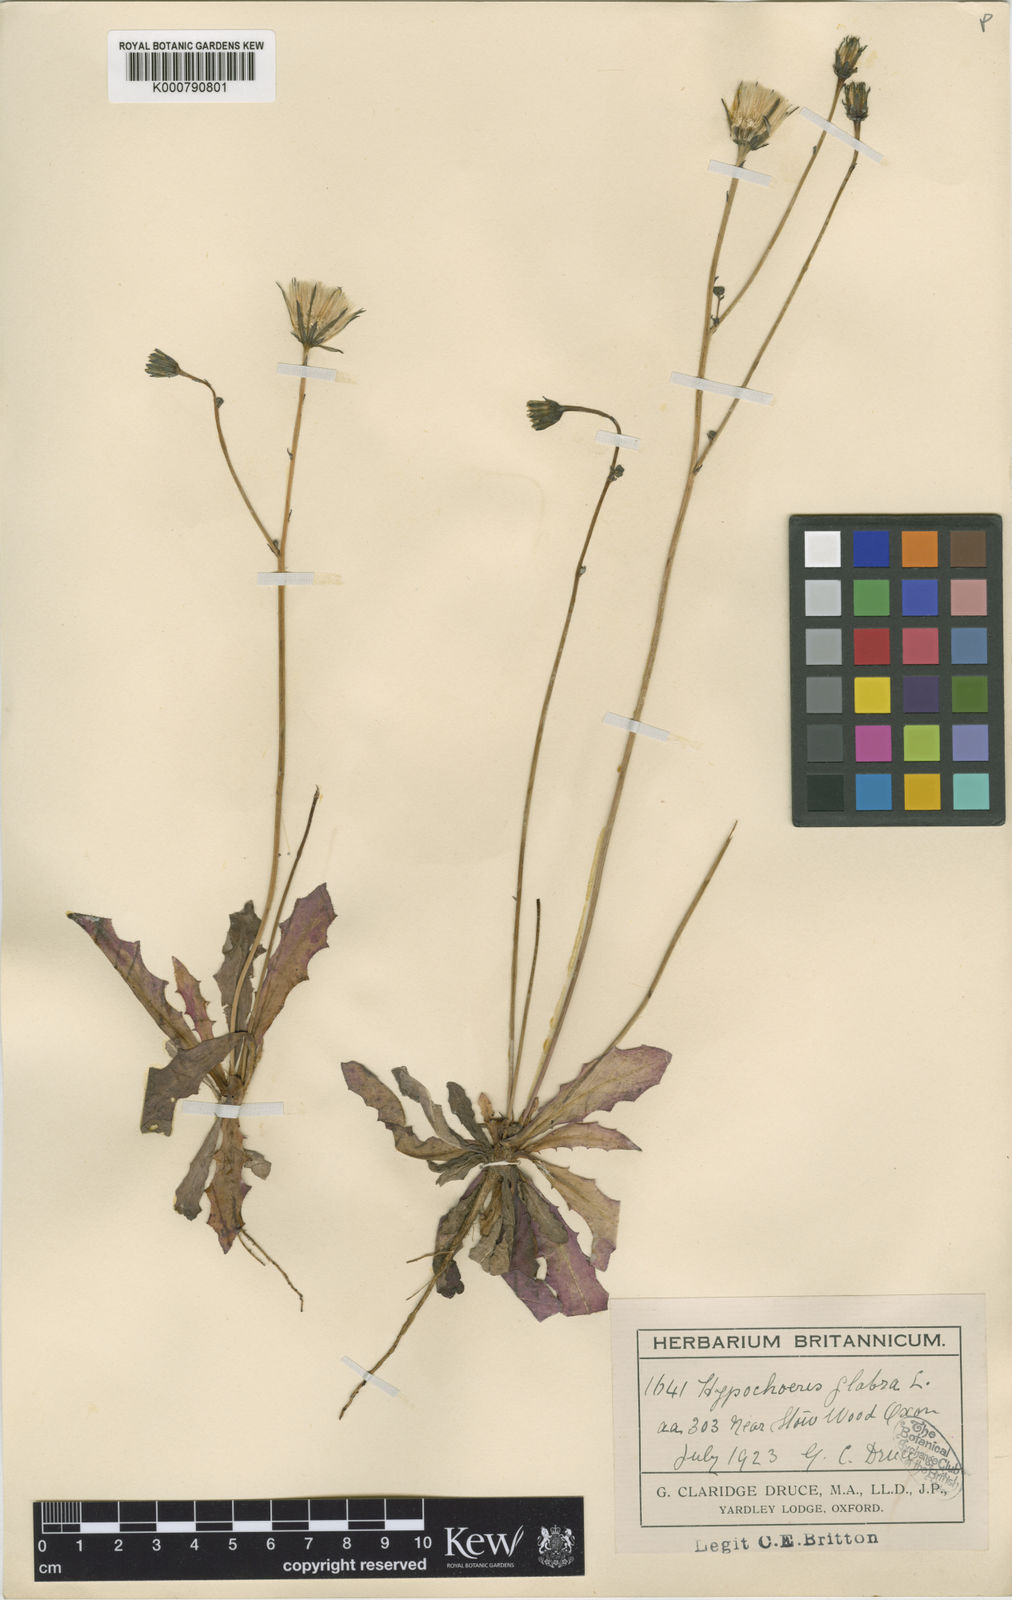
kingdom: Plantae
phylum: Tracheophyta
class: Magnoliopsida
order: Asterales
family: Asteraceae
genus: Hypochaeris
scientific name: Hypochaeris glabra
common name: Smooth catsear
